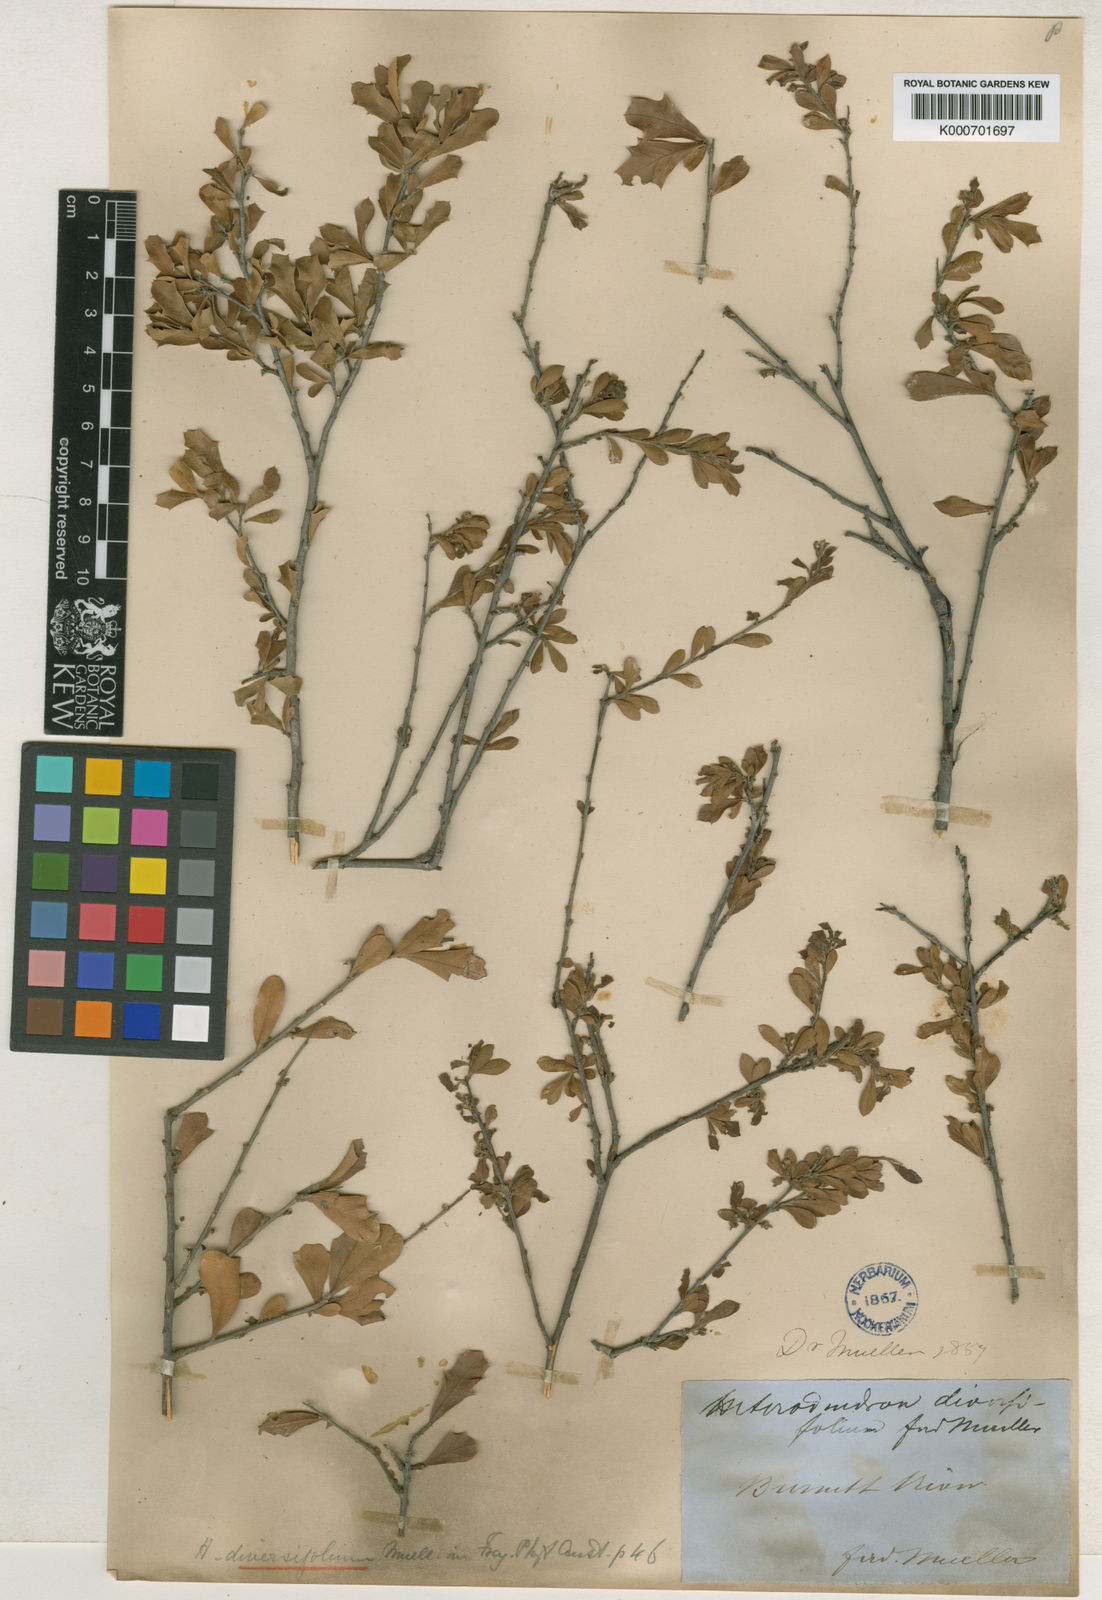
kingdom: Plantae
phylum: Tracheophyta
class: Magnoliopsida
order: Sapindales
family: Sapindaceae
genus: Alectryon
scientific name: Alectryon diversifolius
